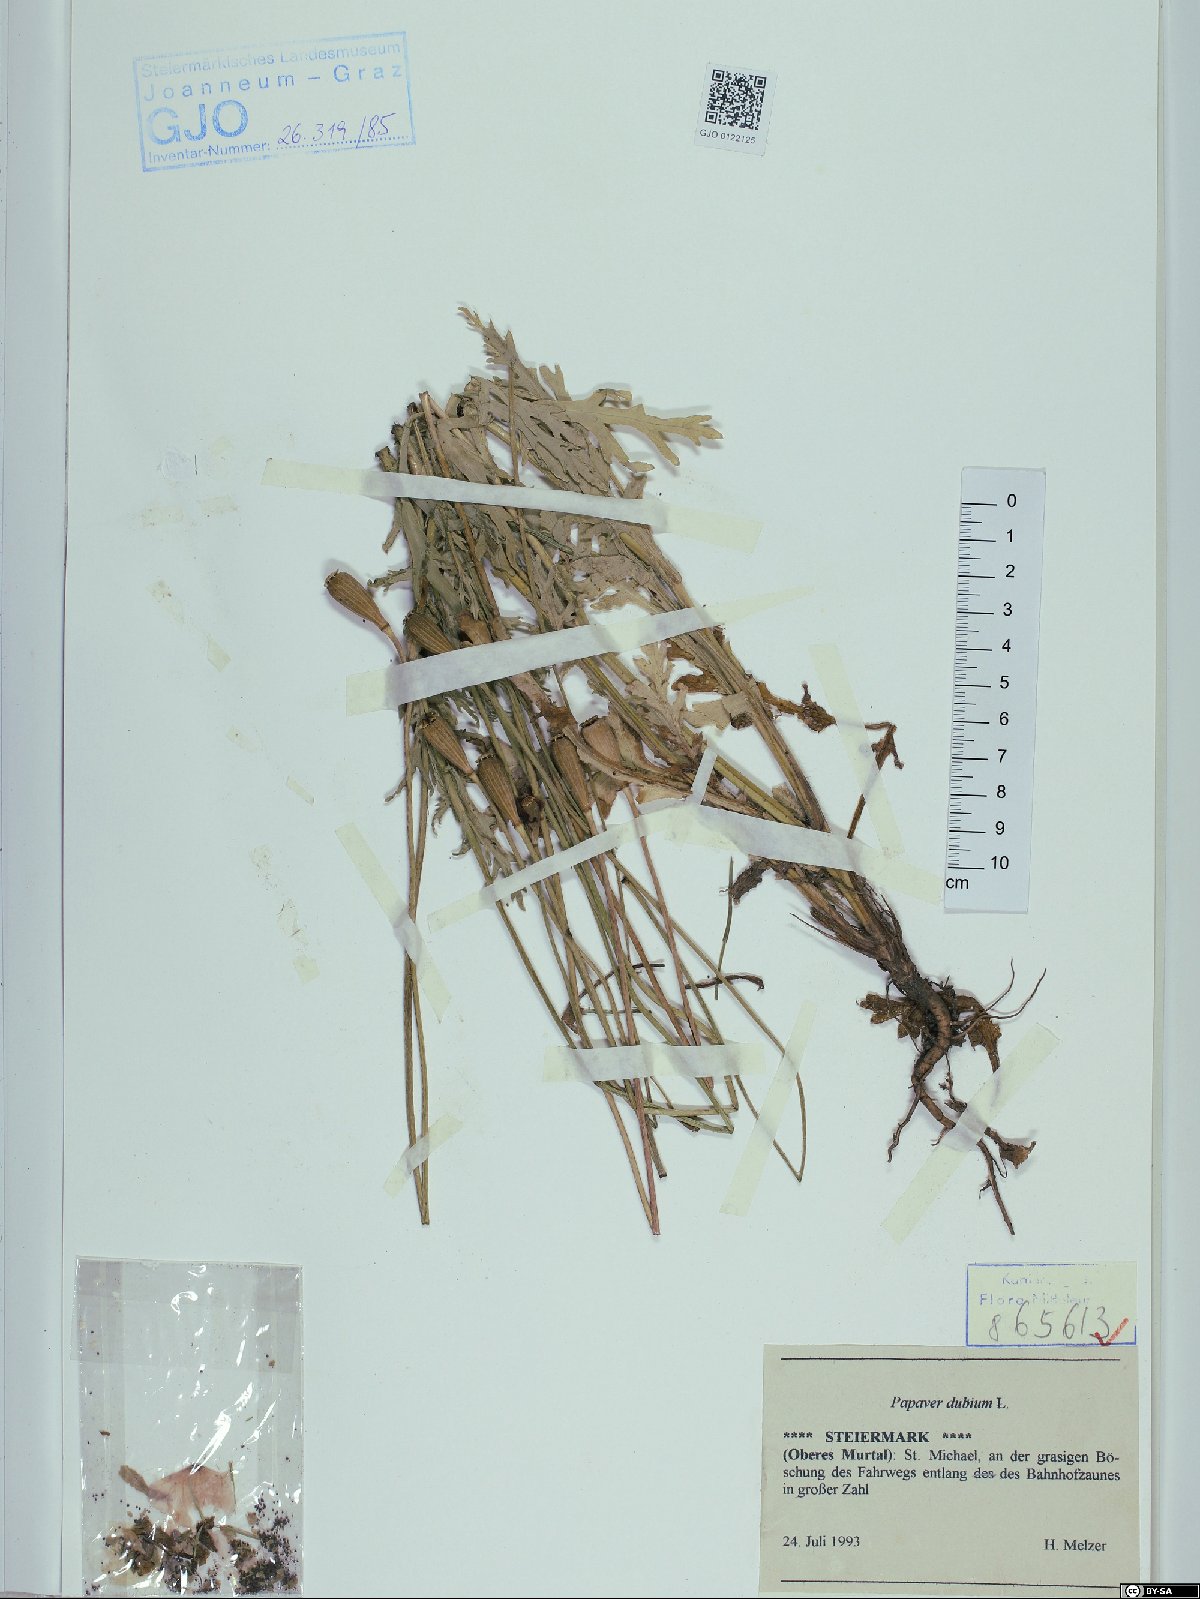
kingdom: Plantae
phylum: Tracheophyta
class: Magnoliopsida
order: Ranunculales
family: Papaveraceae
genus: Papaver
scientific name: Papaver dubium
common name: Long-headed poppy
